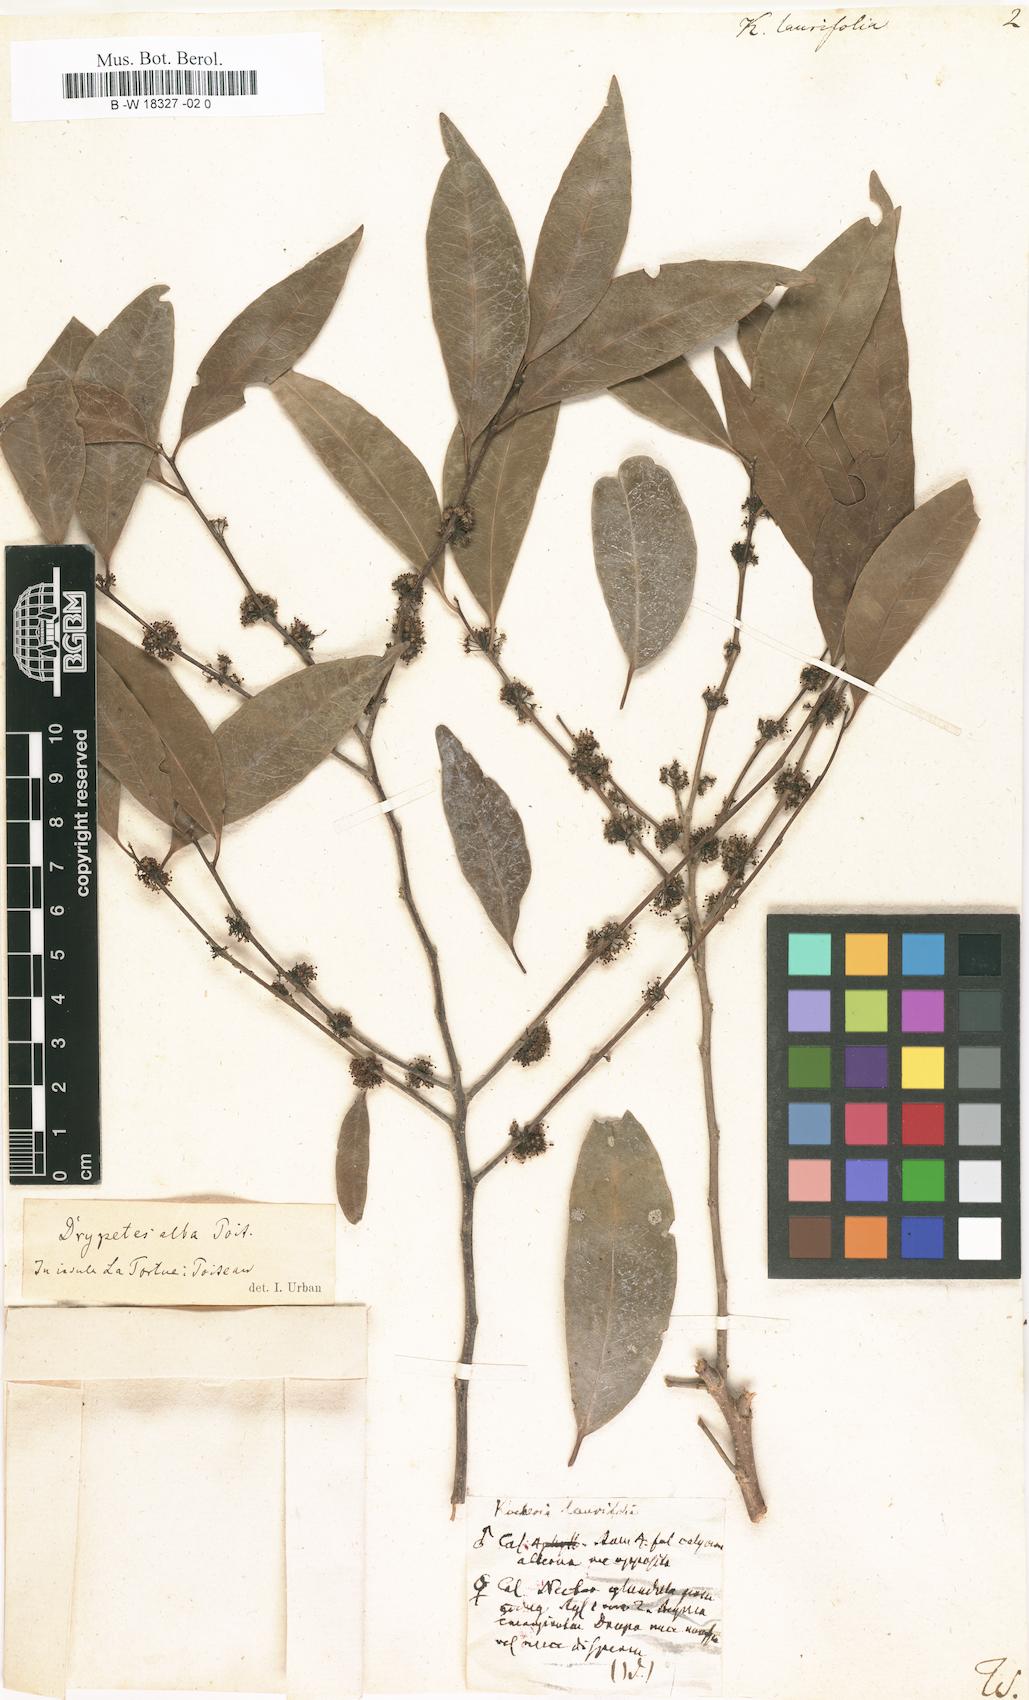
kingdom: Plantae
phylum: Tracheophyta
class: Magnoliopsida
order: Malpighiales
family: Salicaceae
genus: Xylosma
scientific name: Xylosma coriacea
